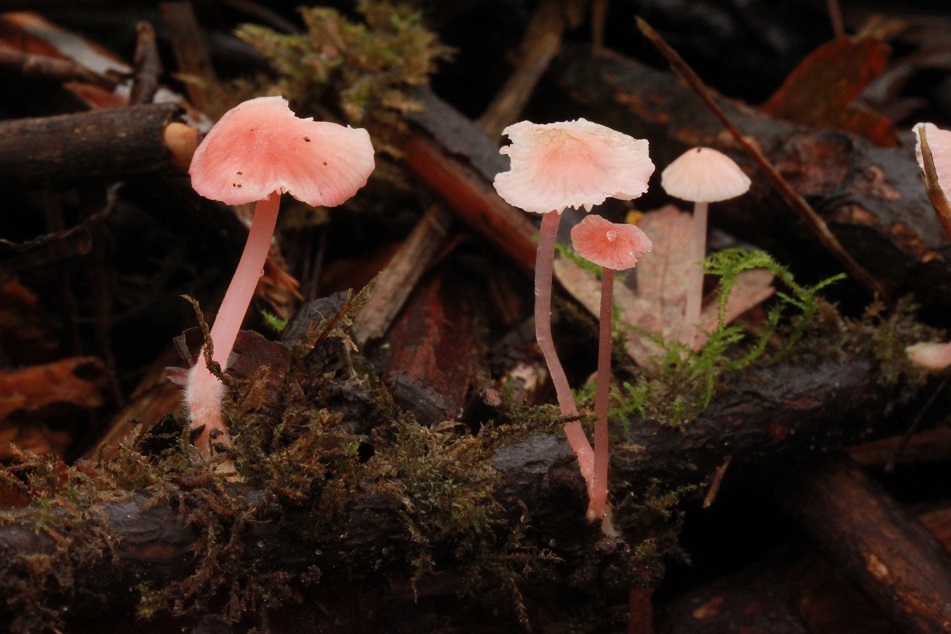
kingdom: Fungi
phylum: Basidiomycota
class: Agaricomycetes
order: Agaricales
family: Mycenaceae
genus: Mycena
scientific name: Mycena coccinea
